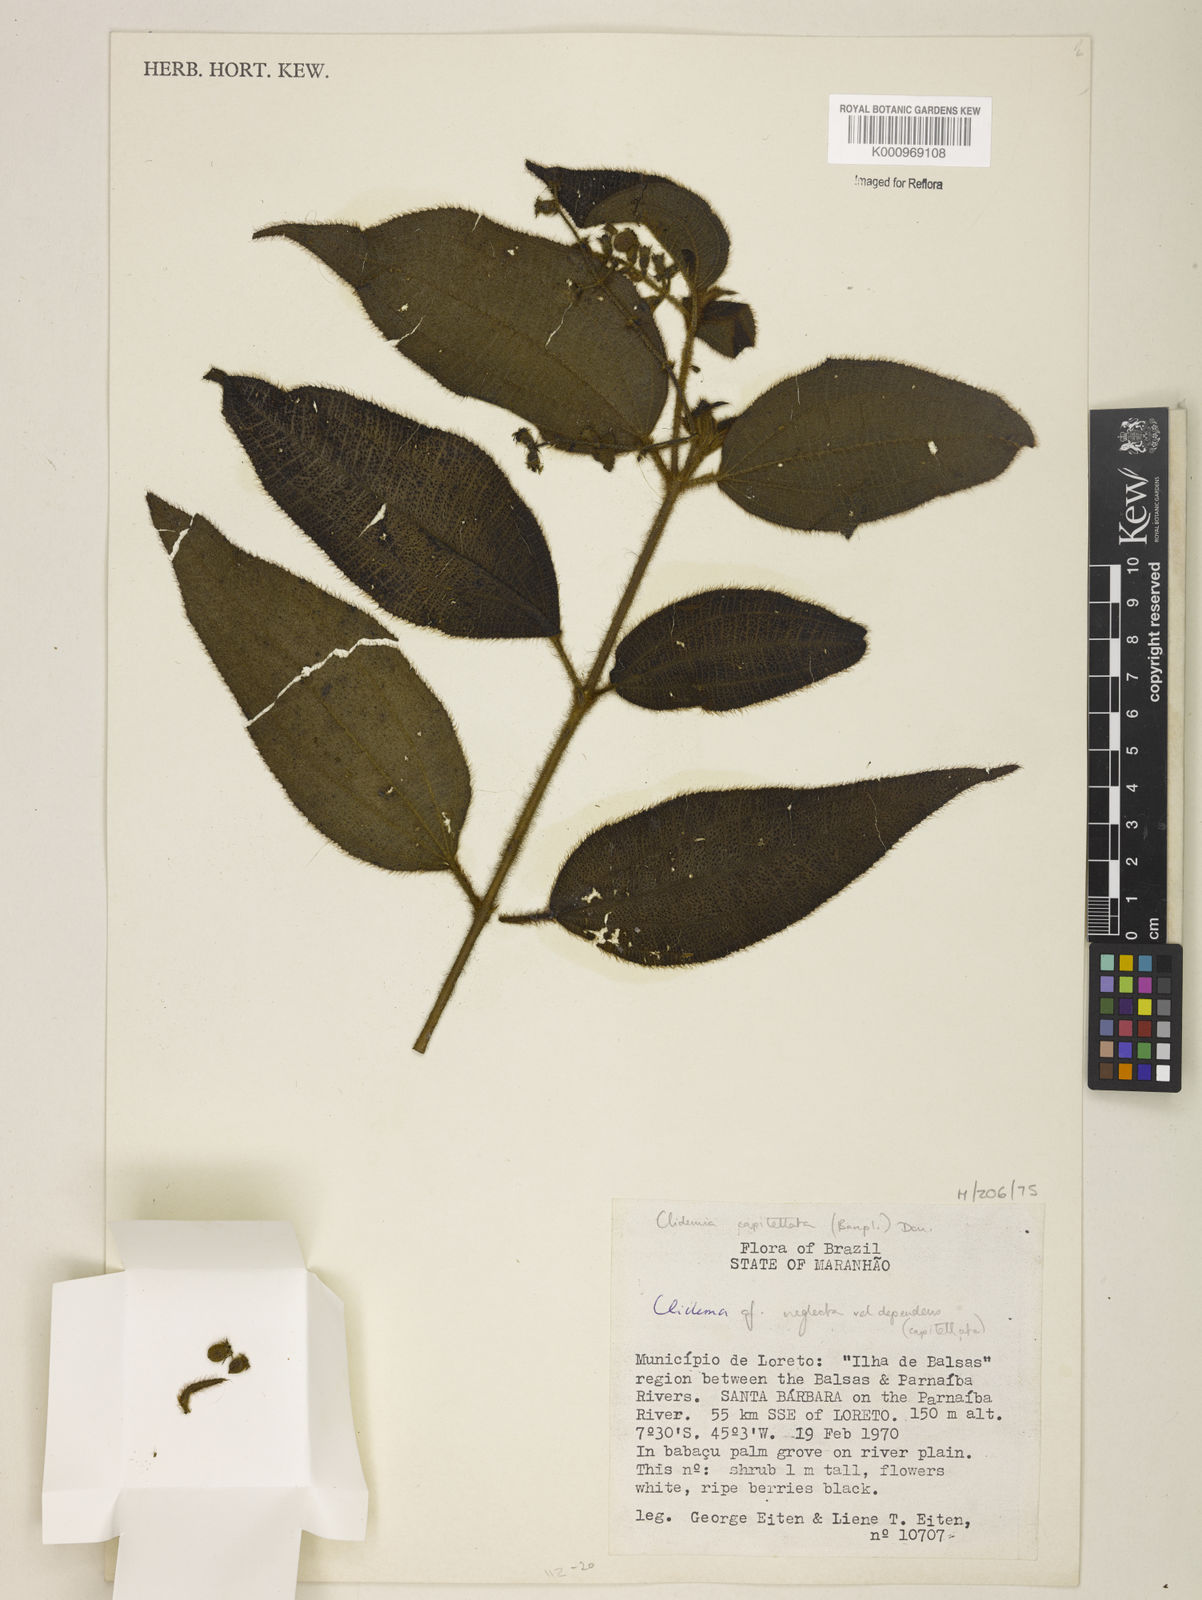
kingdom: Plantae
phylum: Tracheophyta
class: Magnoliopsida
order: Myrtales
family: Melastomataceae
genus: Miconia
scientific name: Miconia dependens
